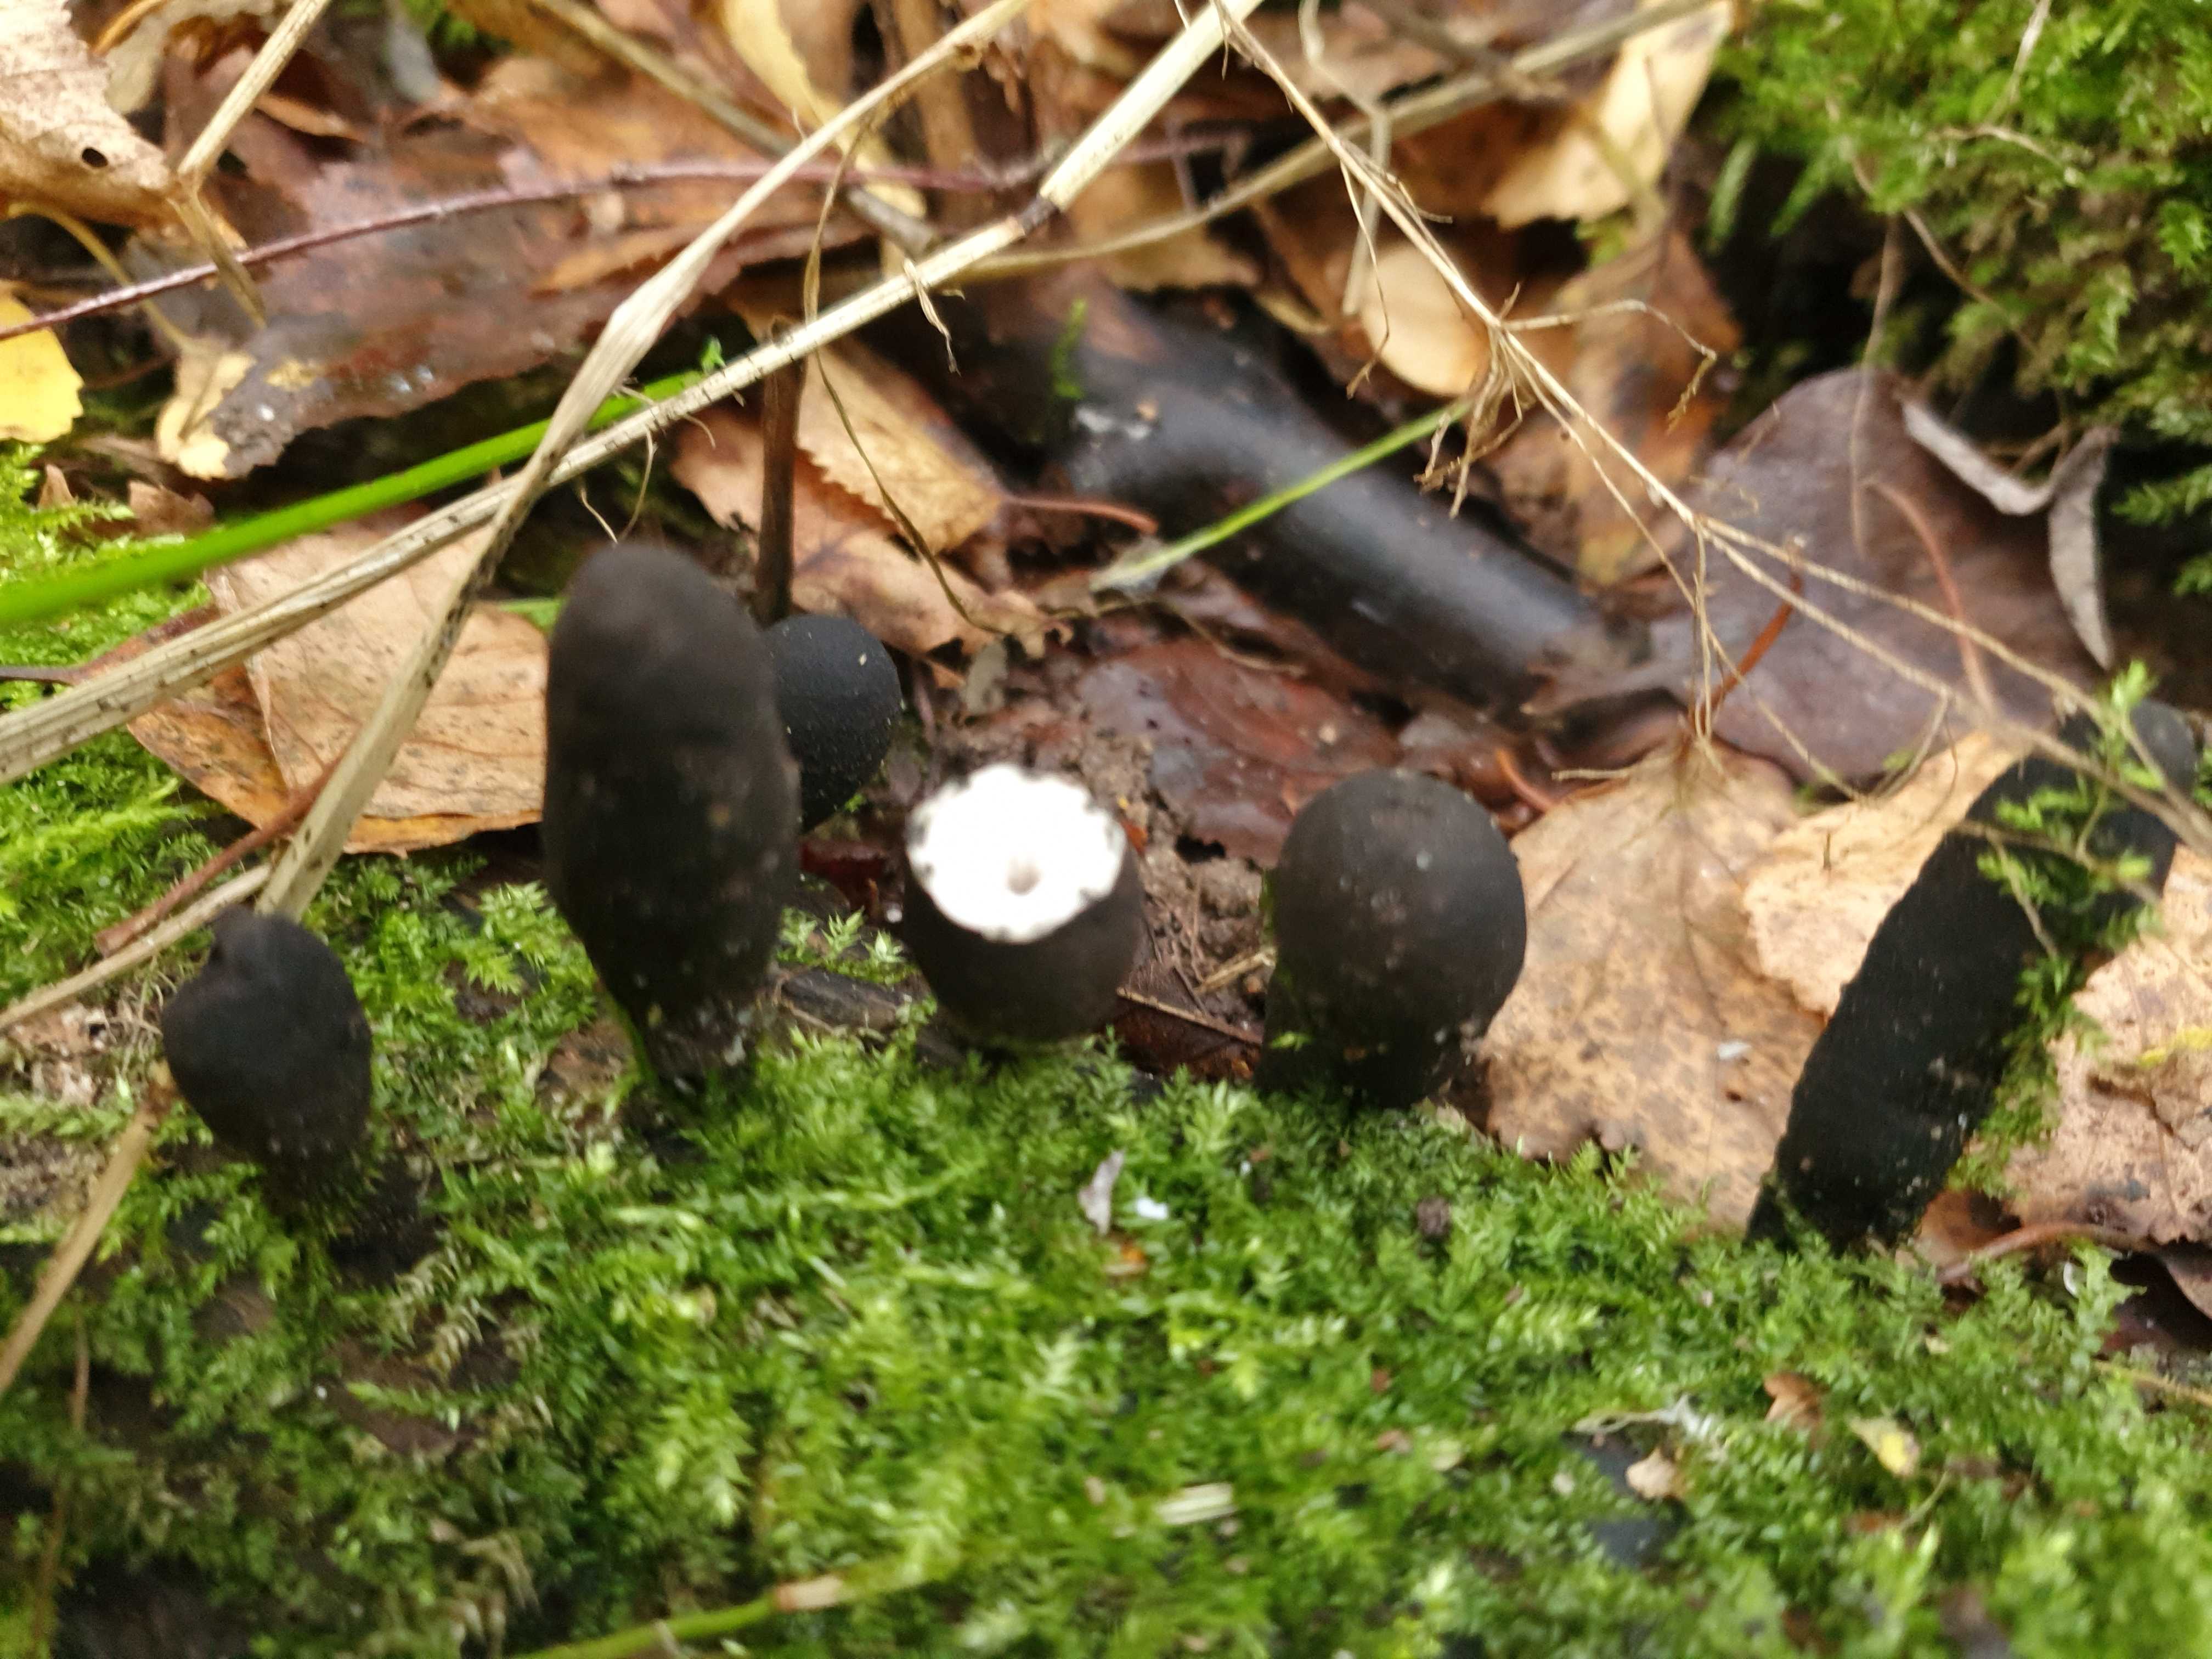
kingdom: Fungi
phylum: Ascomycota
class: Sordariomycetes
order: Xylariales
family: Xylariaceae
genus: Xylaria
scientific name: Xylaria
